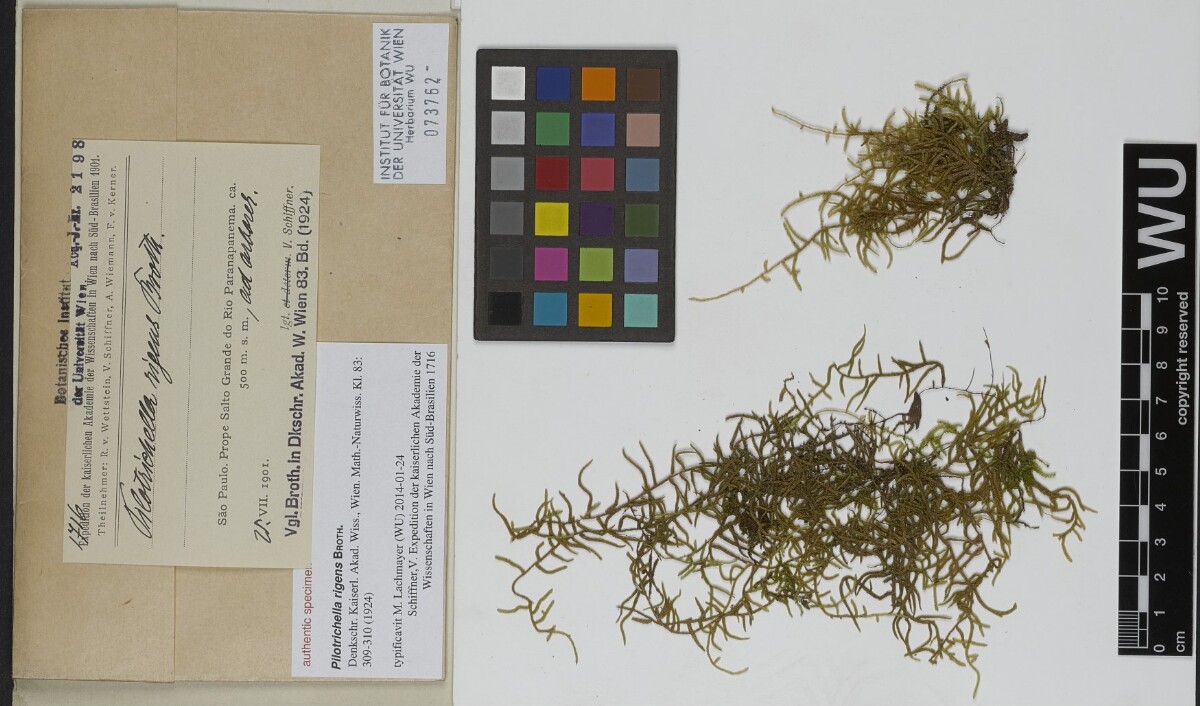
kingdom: Plantae
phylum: Bryophyta
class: Bryopsida
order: Hypnales
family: Orthostichellaceae
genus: Orthostichella
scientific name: Orthostichella pachygastrella
